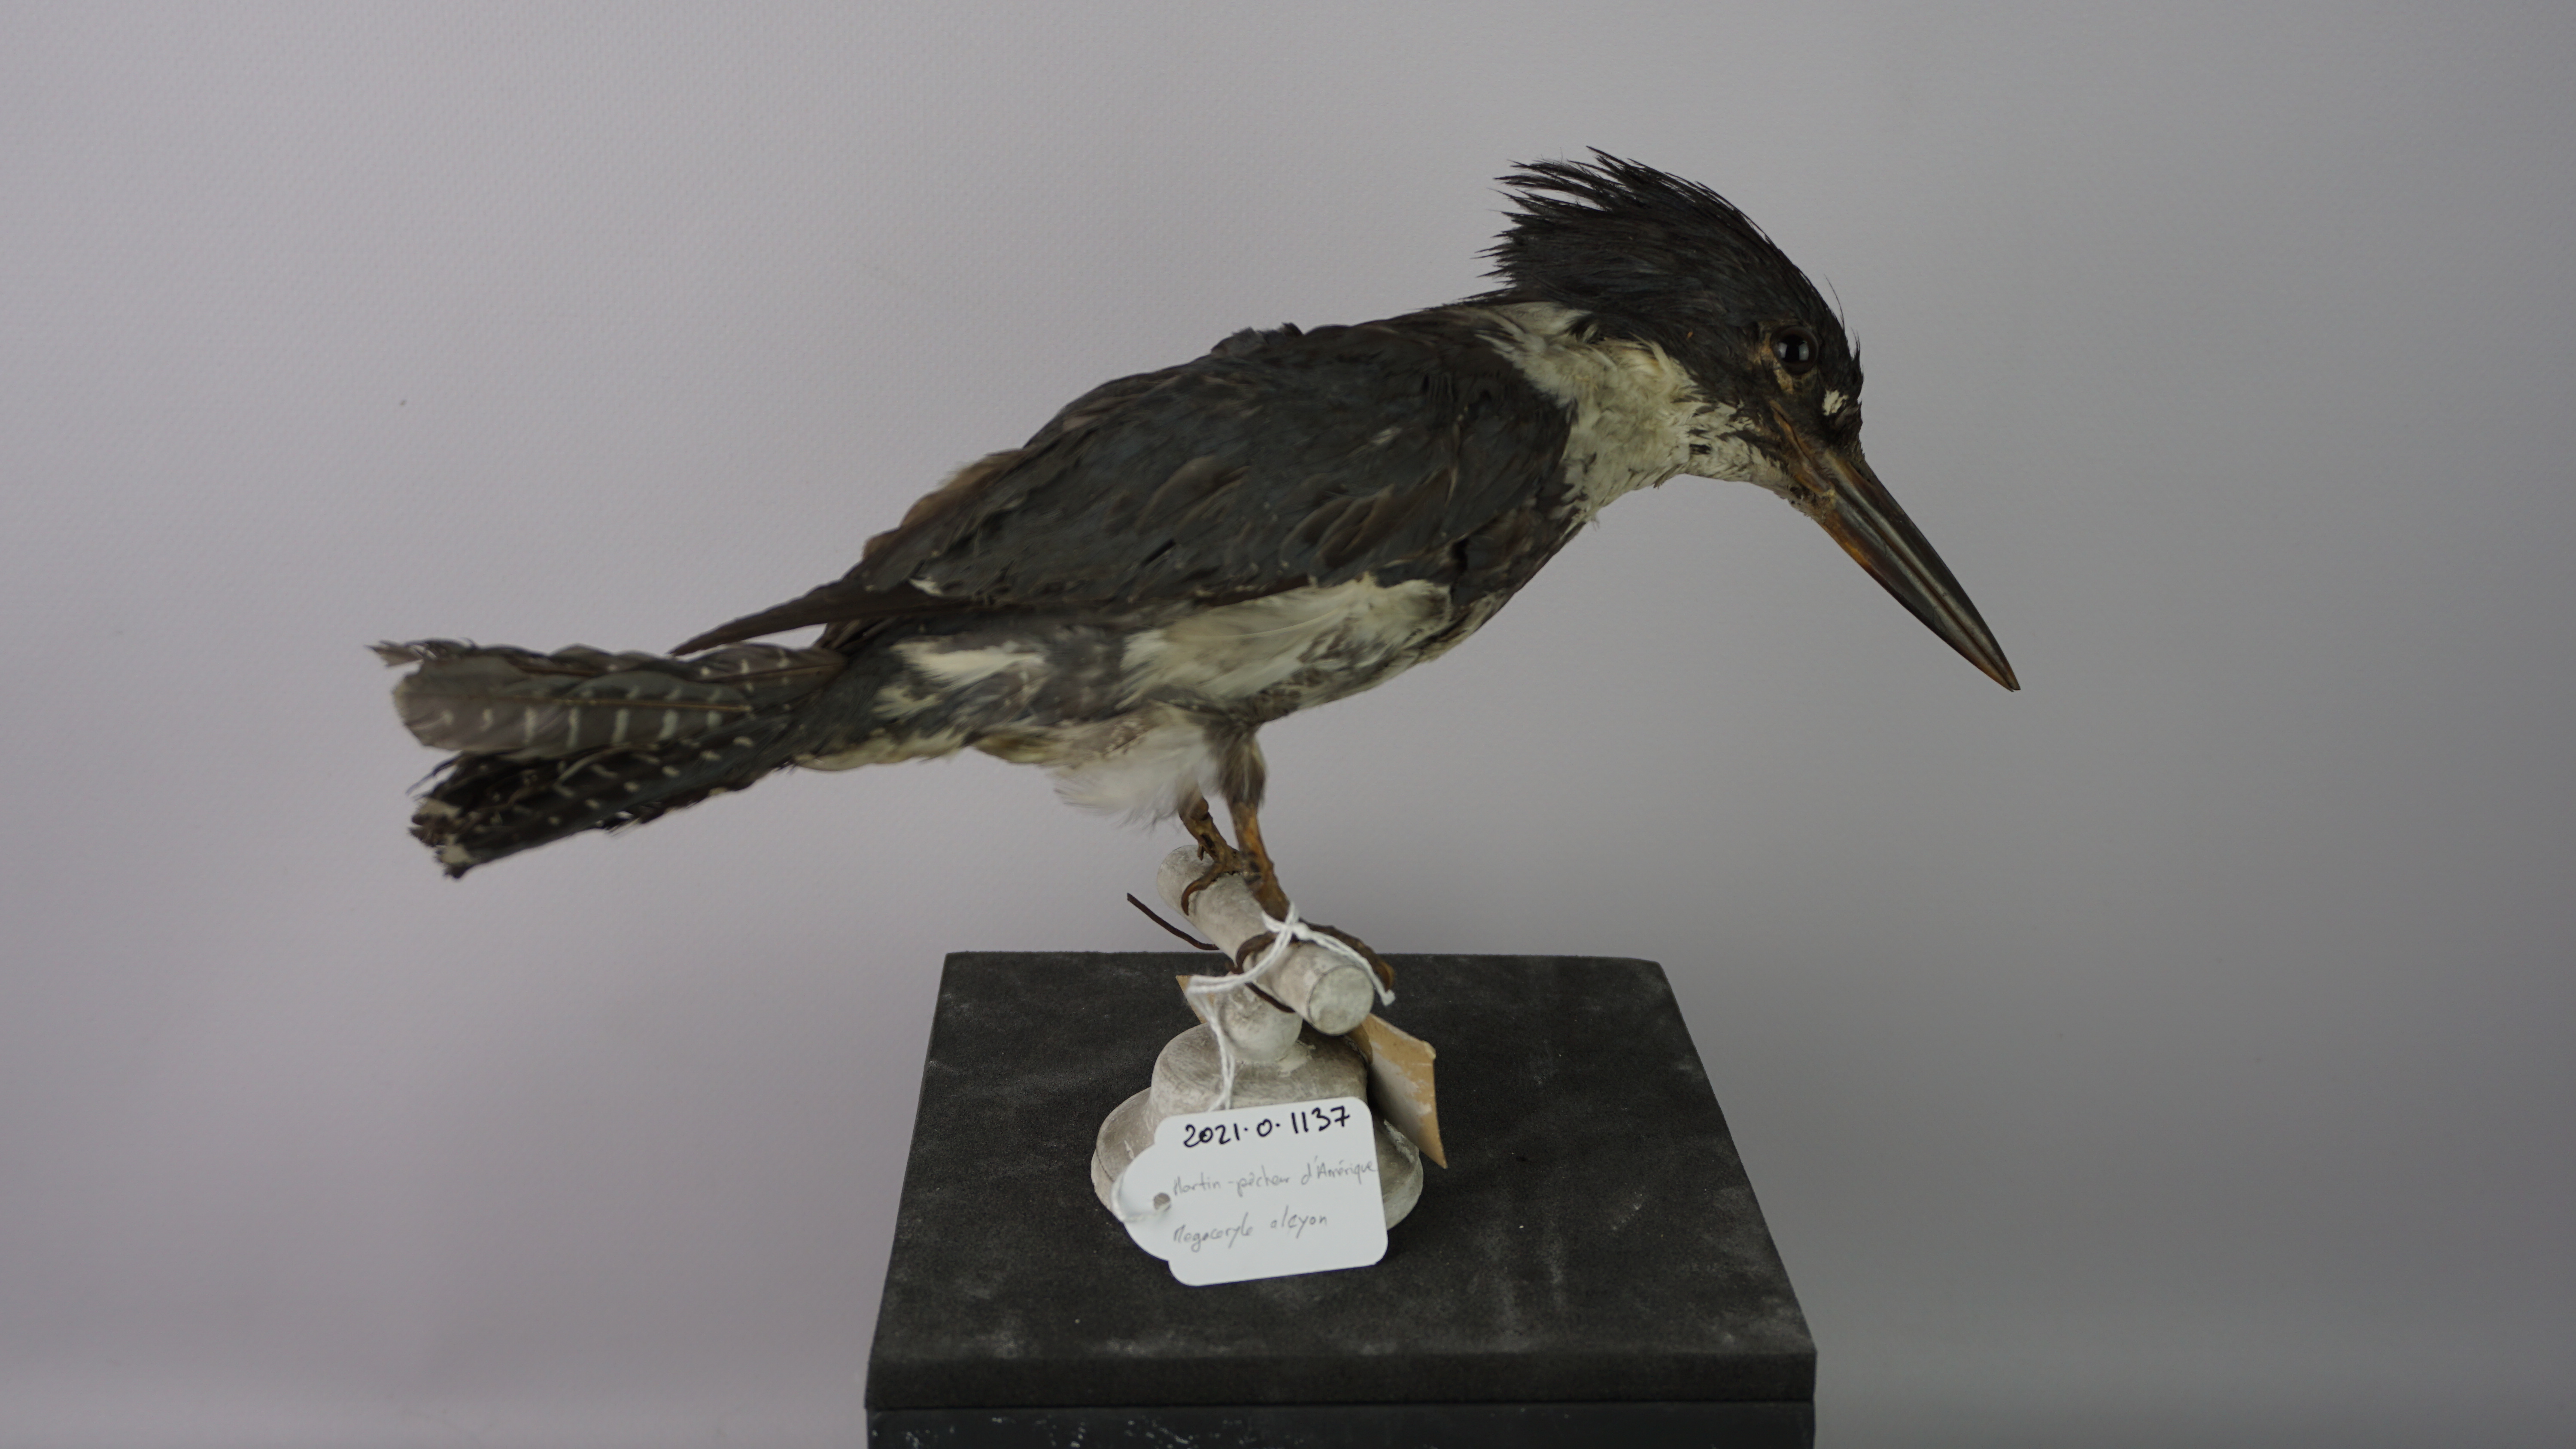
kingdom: Animalia
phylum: Chordata
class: Aves
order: Coraciiformes
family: Alcedinidae
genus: Megaceryle
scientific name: Megaceryle alcyon
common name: Belted kingfisher
